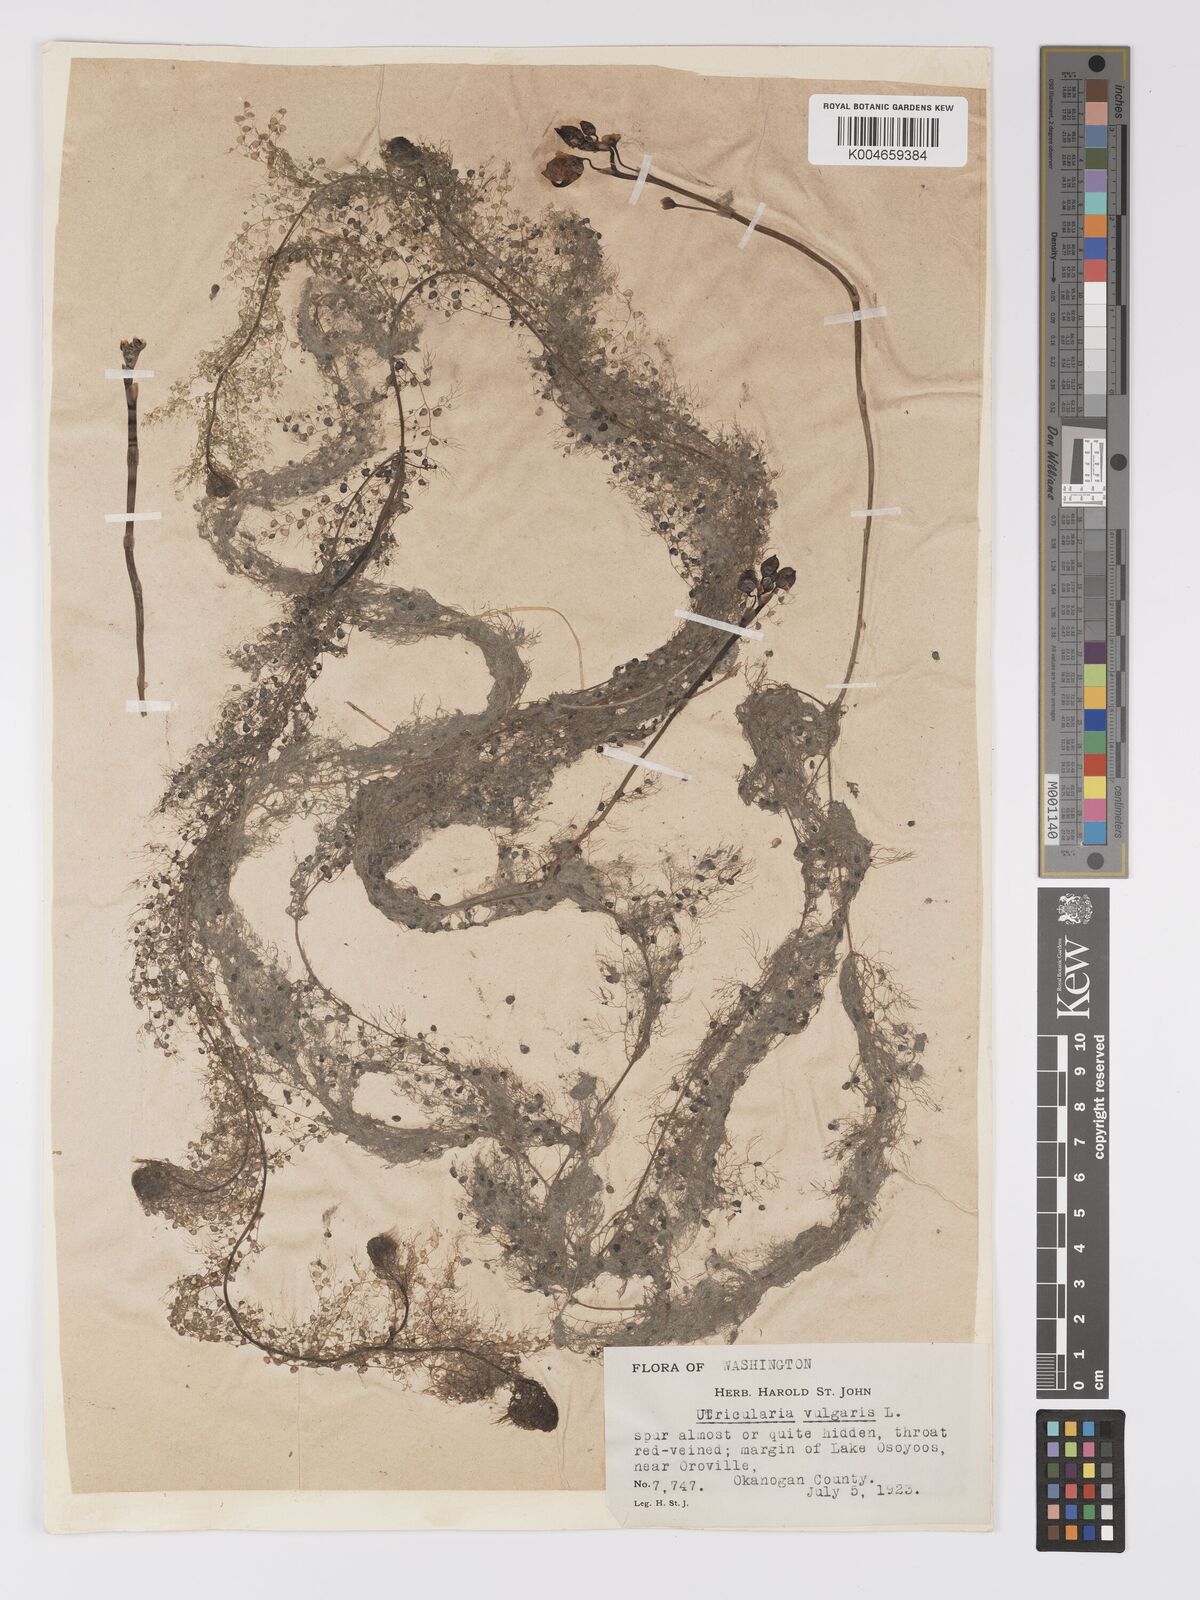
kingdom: Plantae
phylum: Tracheophyta
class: Magnoliopsida
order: Lamiales
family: Lentibulariaceae
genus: Utricularia
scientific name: Utricularia macrorhiza
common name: Common bladderwort
